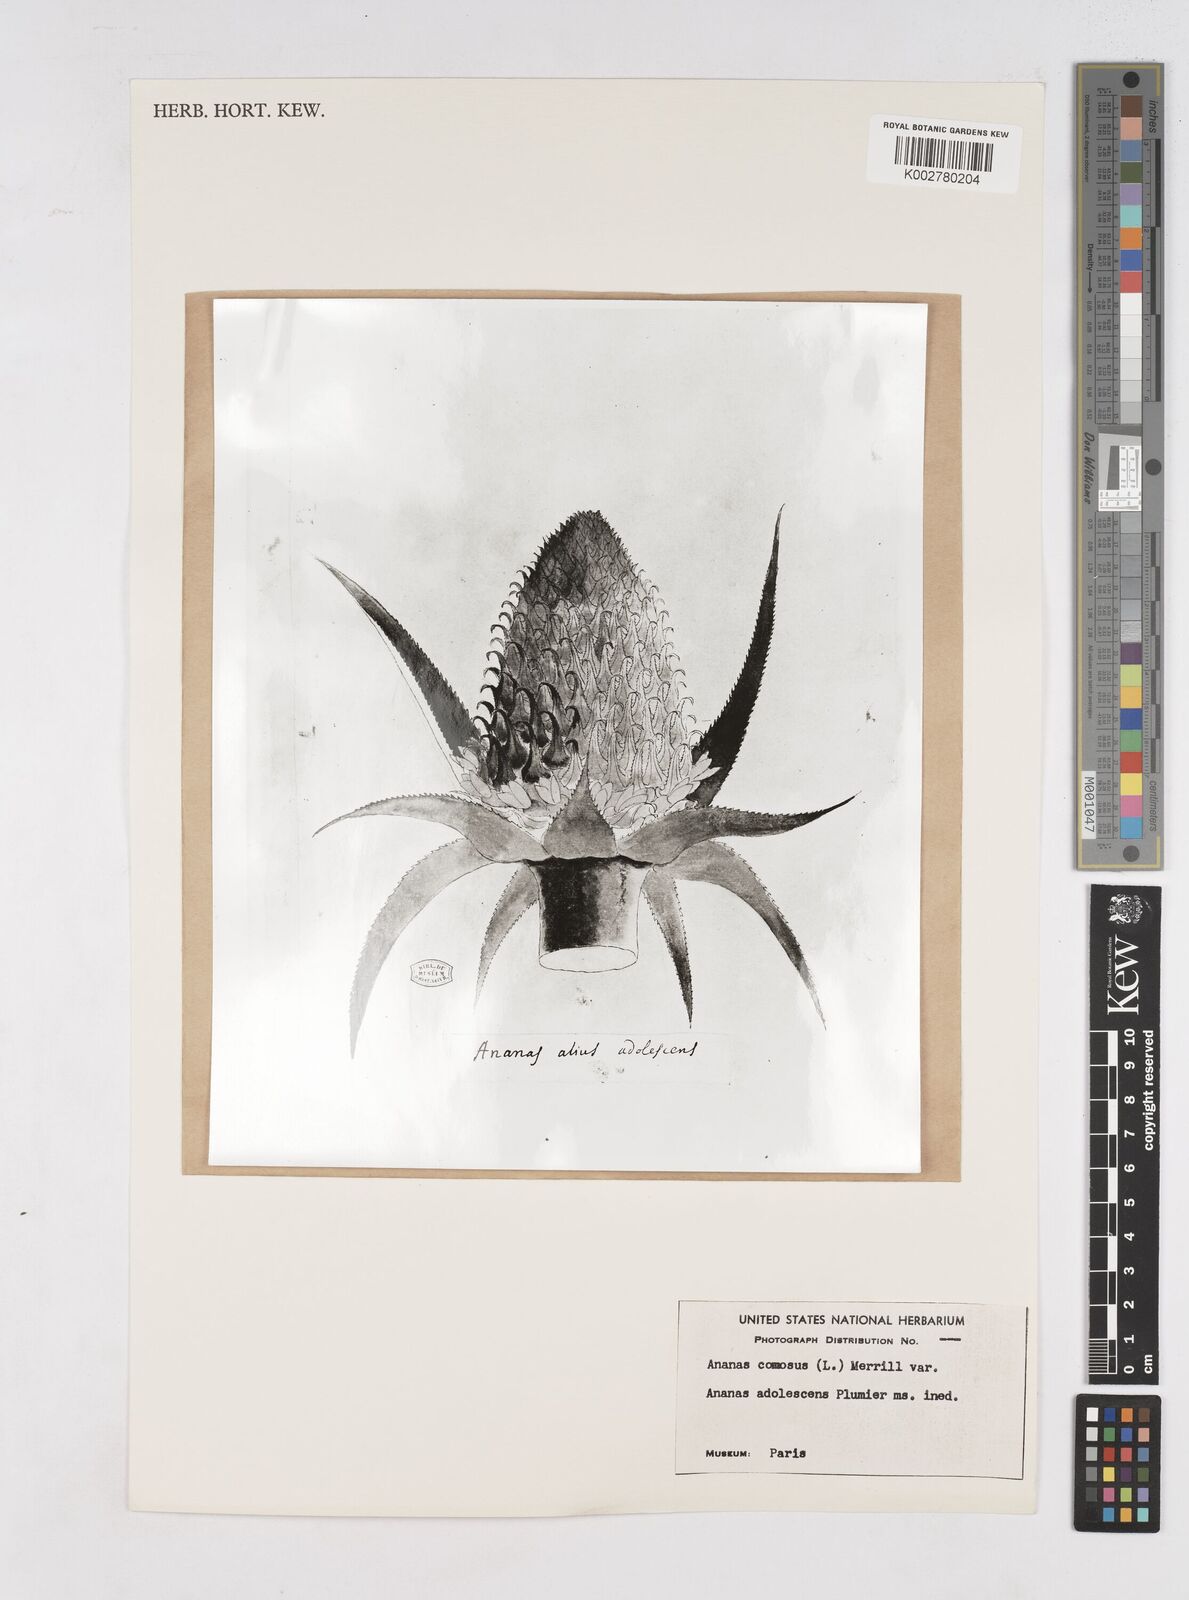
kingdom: Plantae
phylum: Tracheophyta
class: Liliopsida
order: Poales
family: Bromeliaceae
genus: Ananas
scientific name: Ananas
